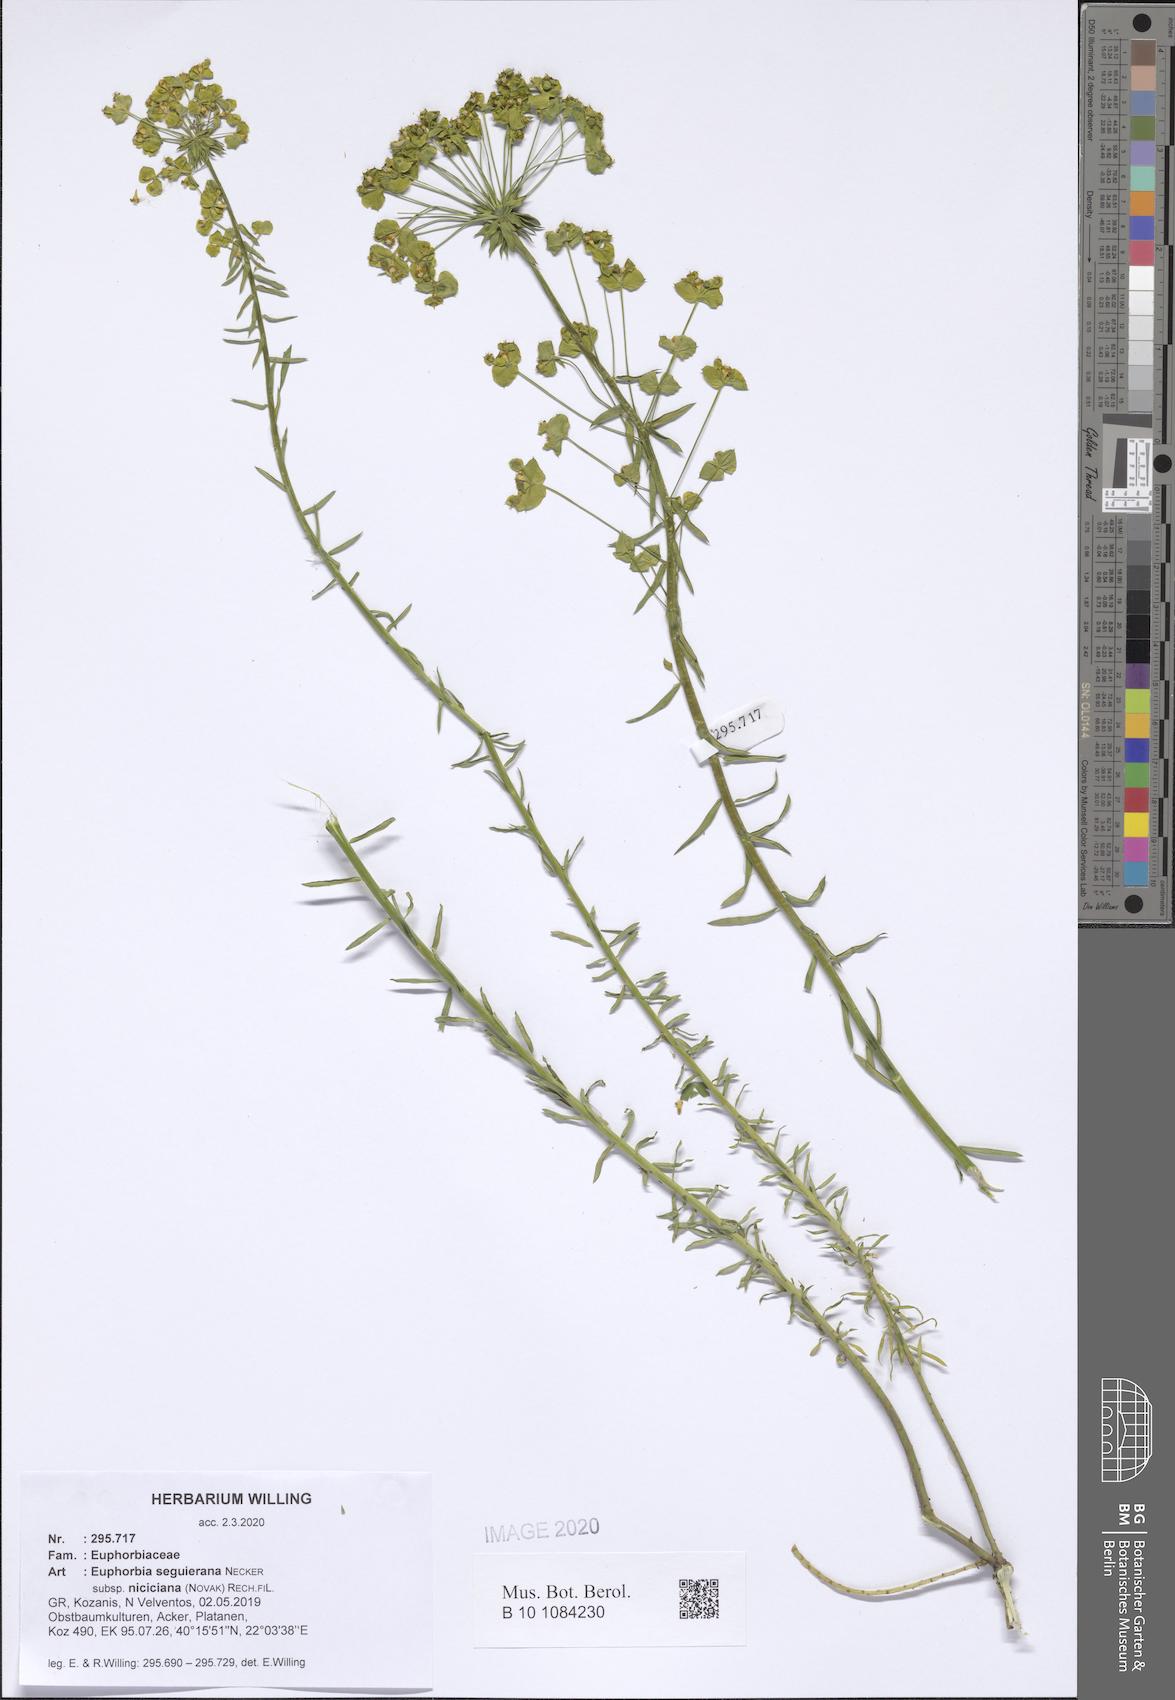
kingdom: Plantae
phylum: Tracheophyta
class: Magnoliopsida
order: Malpighiales
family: Euphorbiaceae
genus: Euphorbia
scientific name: Euphorbia seguieriana
